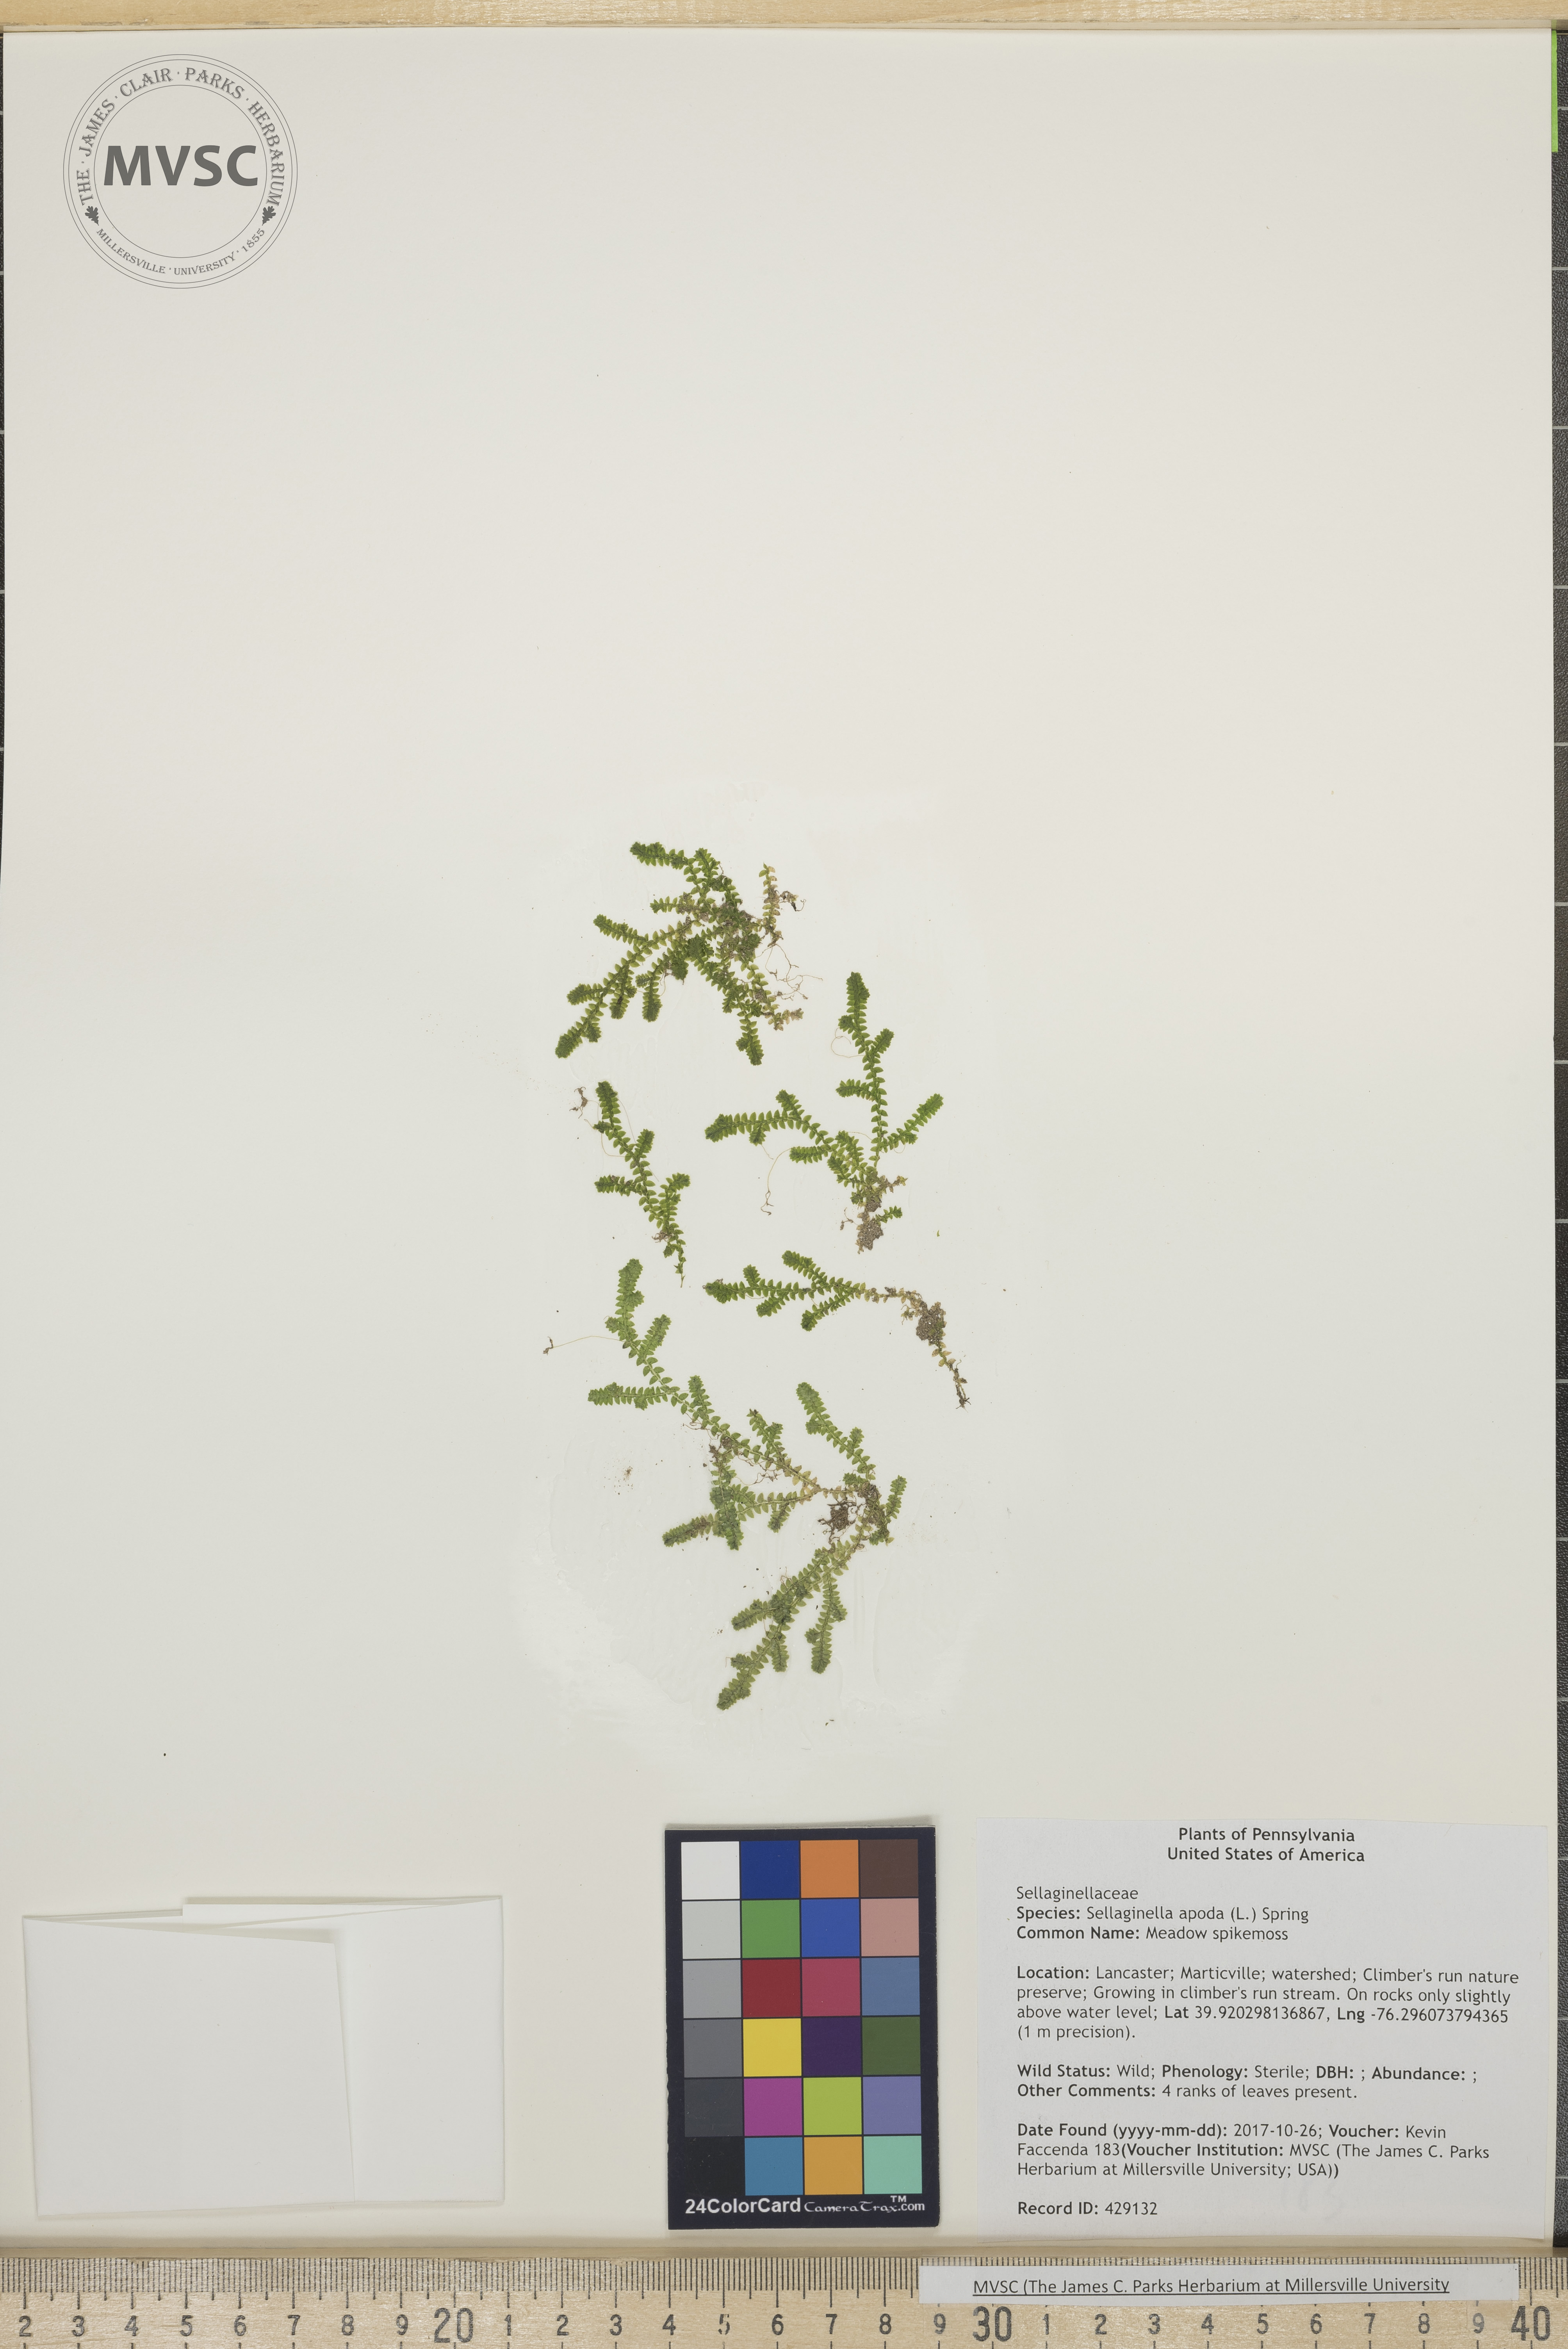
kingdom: Plantae
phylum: Tracheophyta
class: Lycopodiopsida
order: Selaginellales
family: Selaginellaceae
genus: Selaginella
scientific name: Selaginella apoda
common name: Meadow spikemoss
